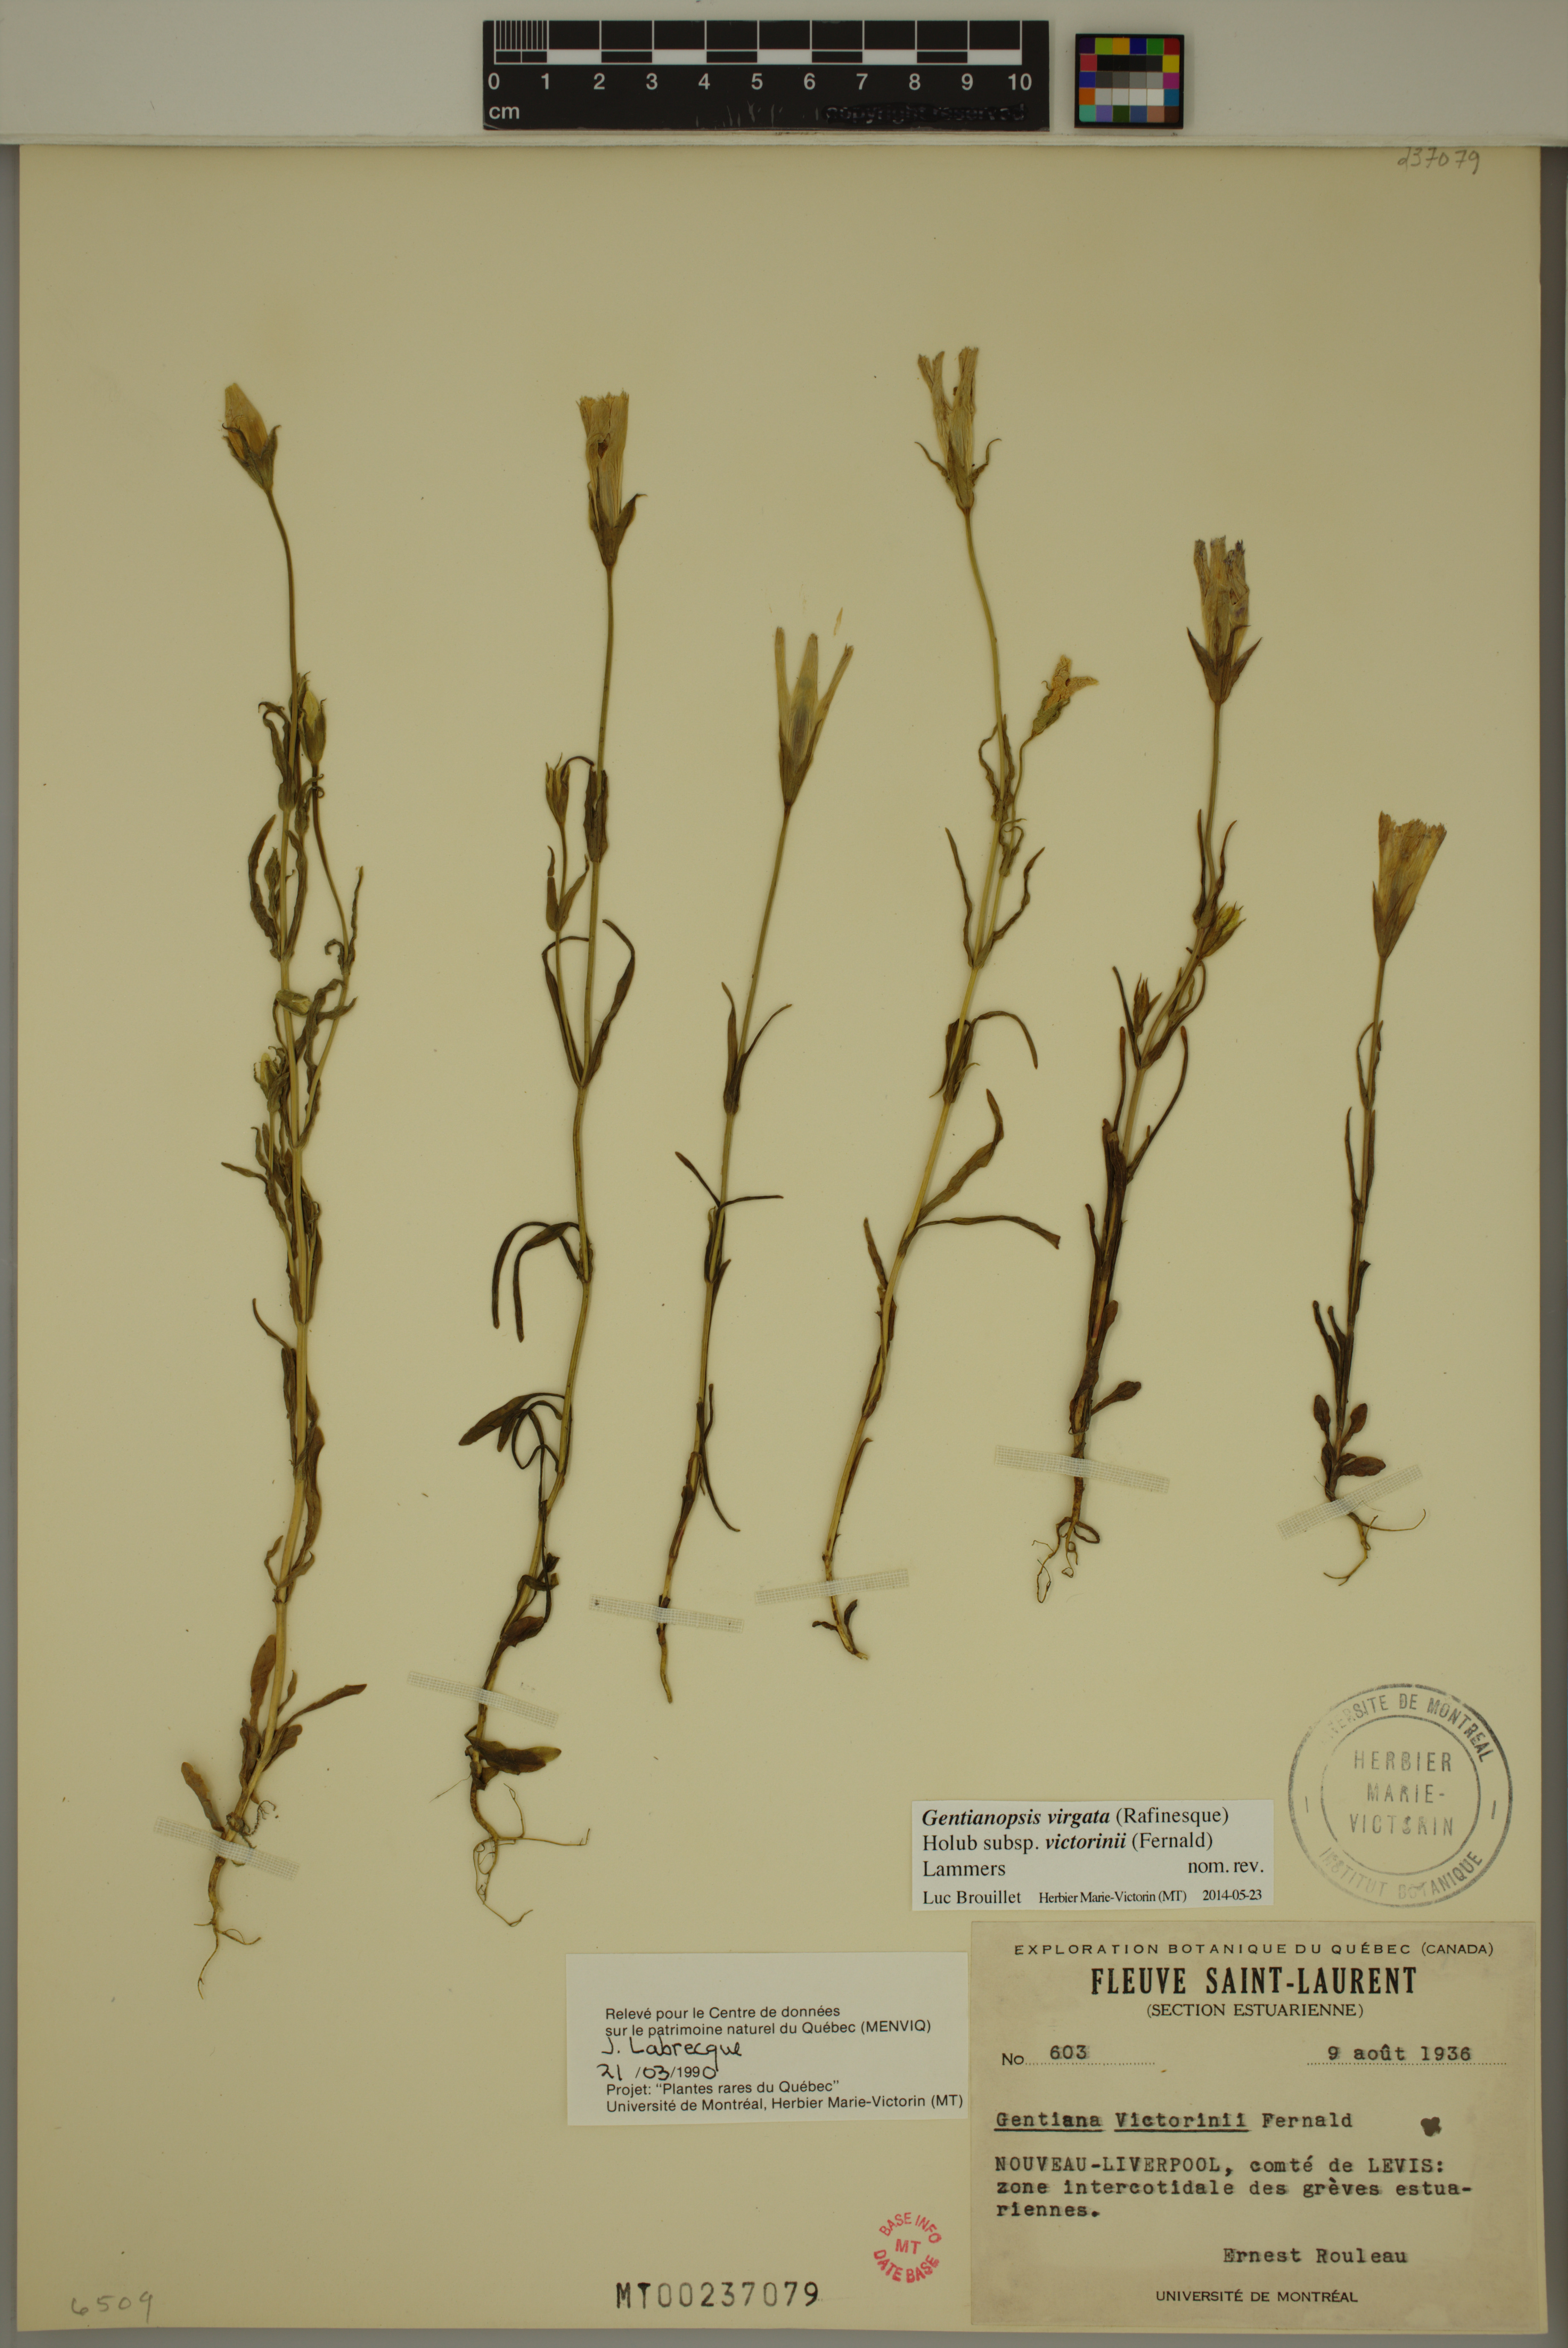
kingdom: Plantae
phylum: Tracheophyta
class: Magnoliopsida
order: Gentianales
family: Gentianaceae
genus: Gentianopsis
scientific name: Gentianopsis victorinii
